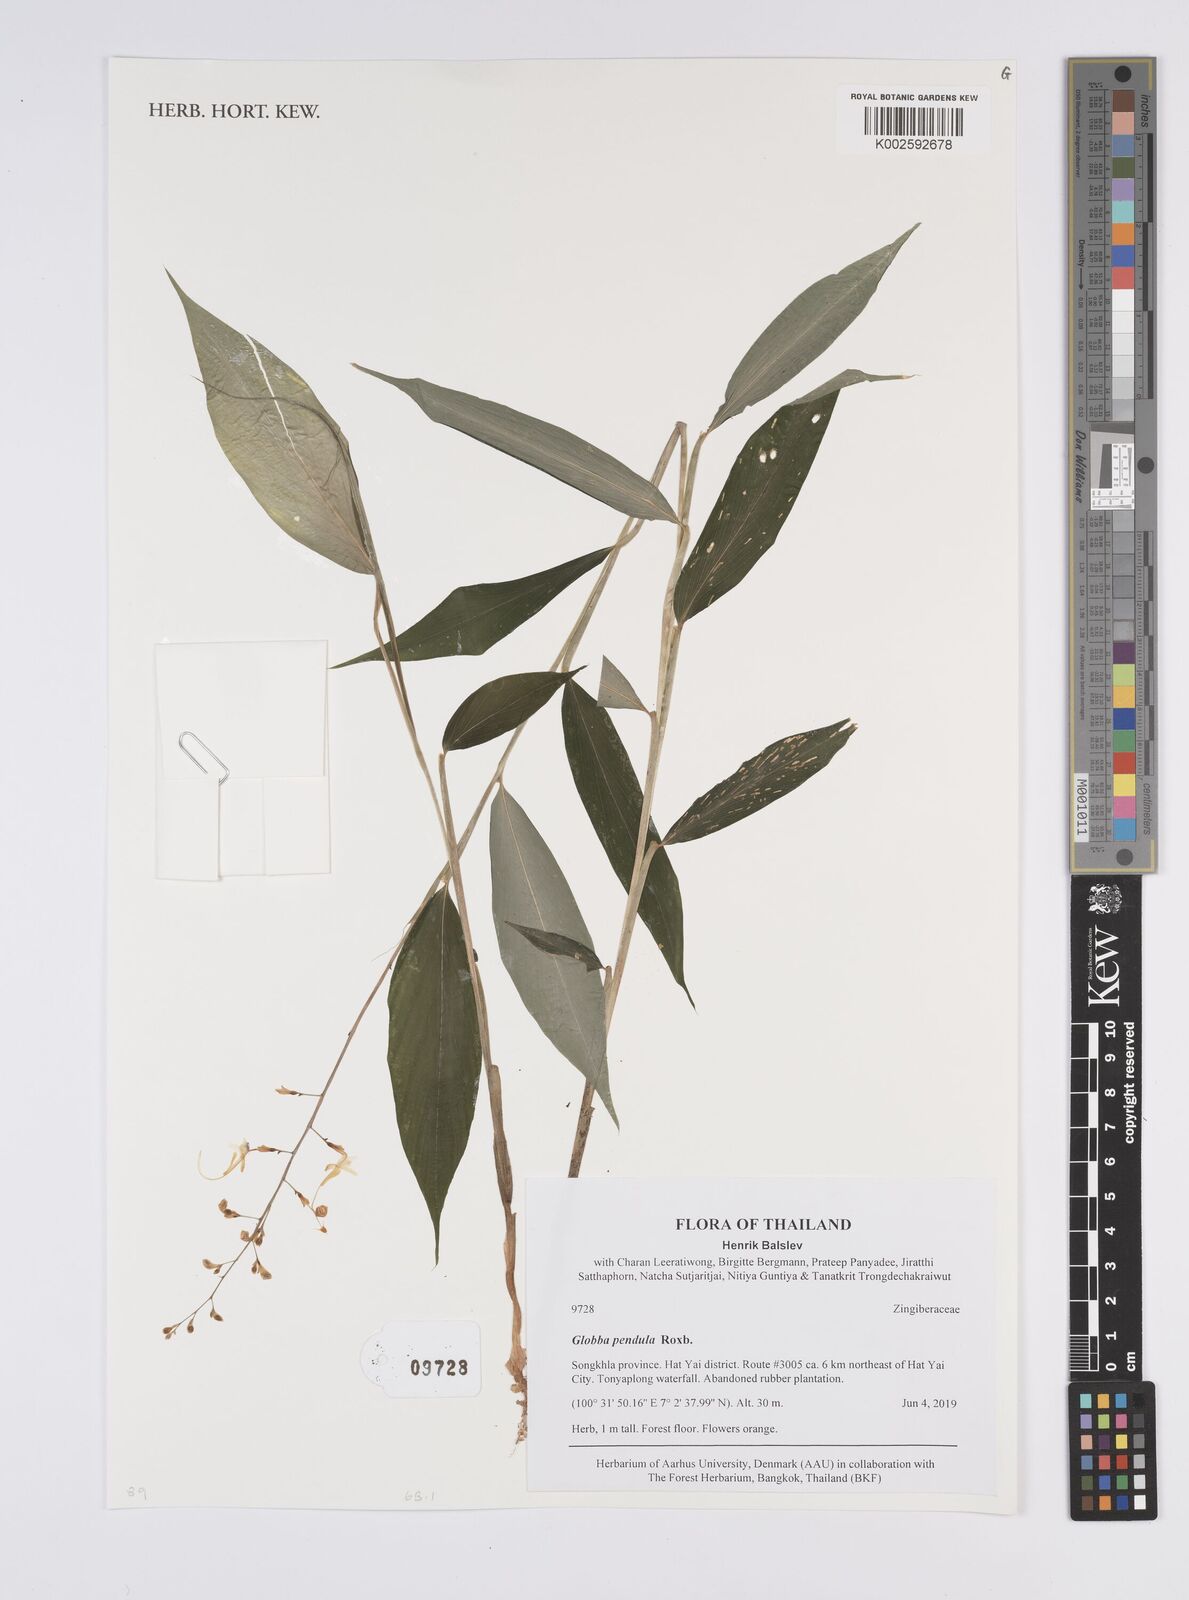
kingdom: Plantae
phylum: Tracheophyta
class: Liliopsida
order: Zingiberales
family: Zingiberaceae
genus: Globba
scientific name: Globba pendula
